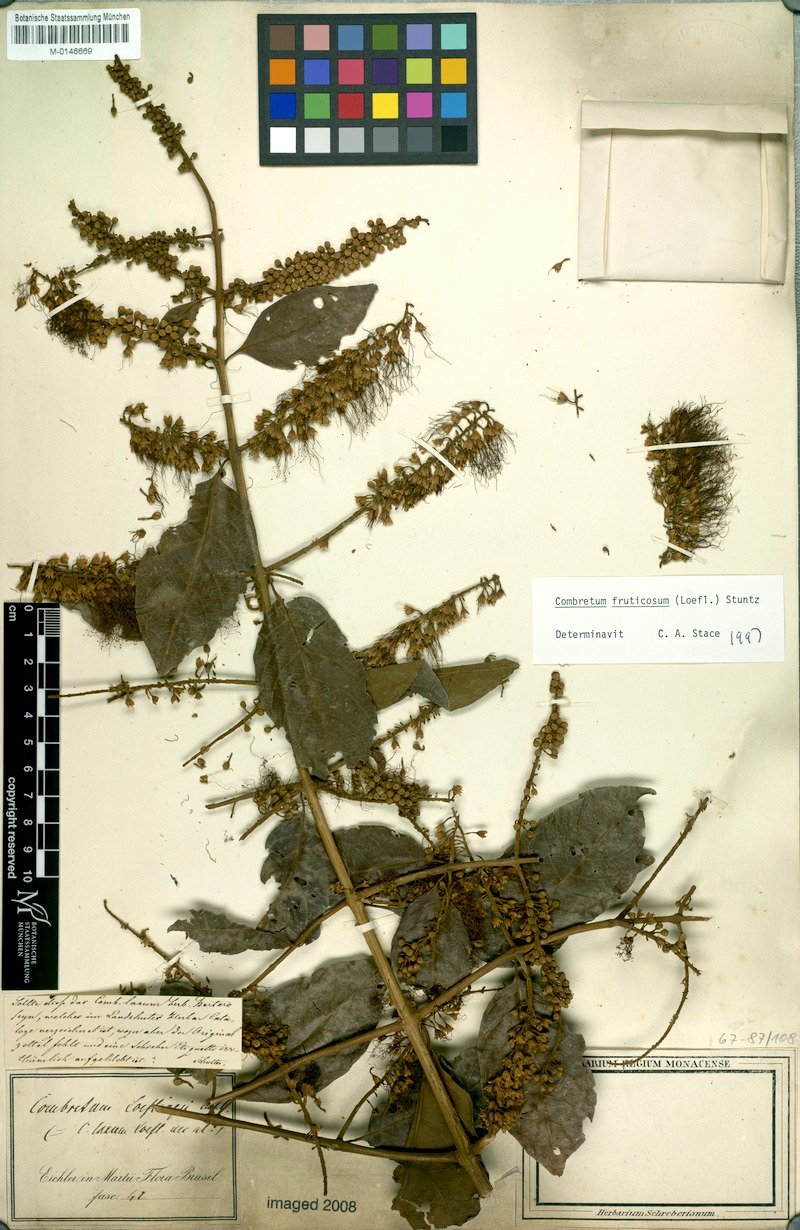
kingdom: Plantae
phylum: Tracheophyta
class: Magnoliopsida
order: Myrtales
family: Combretaceae
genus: Combretum
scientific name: Combretum fruticosum
